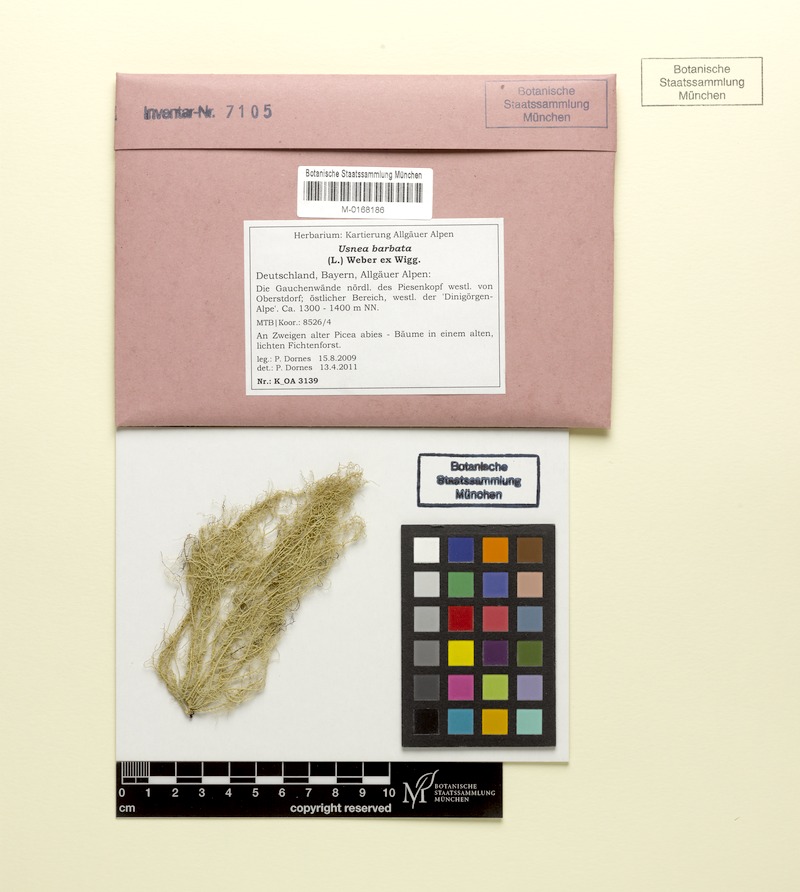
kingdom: Fungi
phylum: Ascomycota
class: Lecanoromycetes
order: Lecanorales
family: Parmeliaceae
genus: Usnea
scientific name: Usnea barbata
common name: Old man's beard lichen
